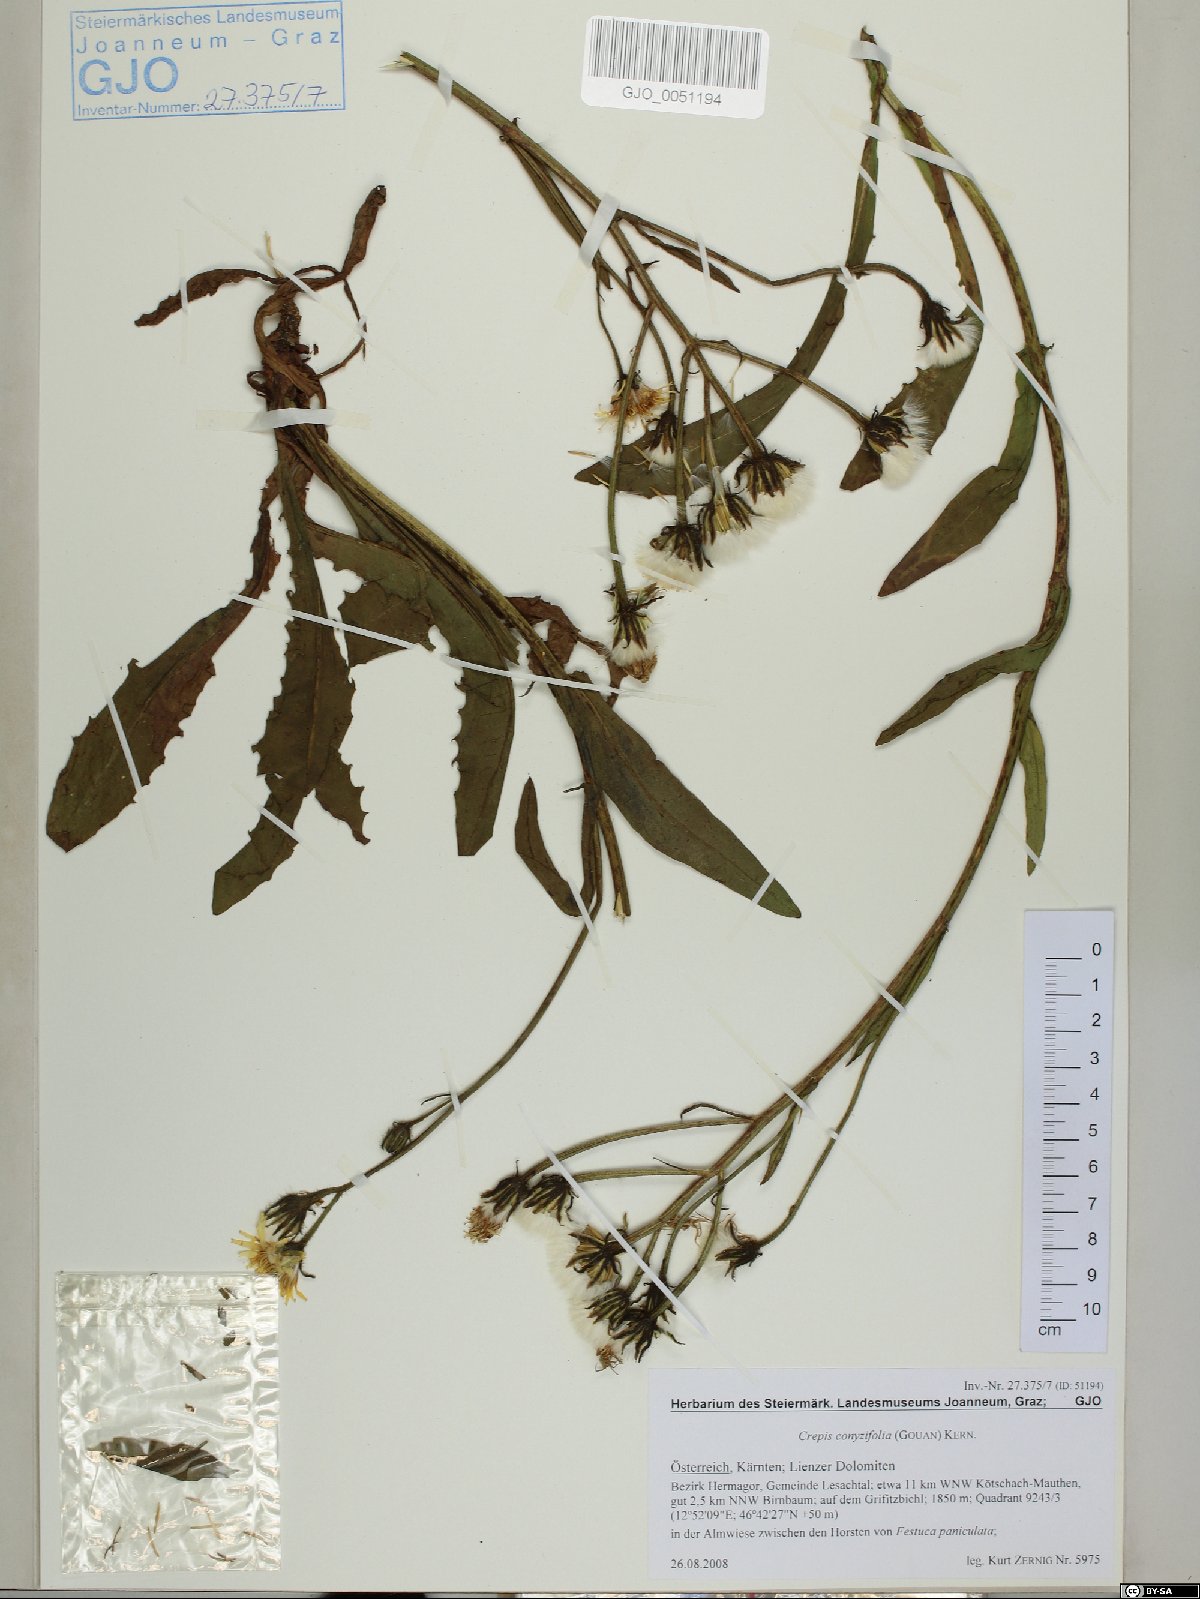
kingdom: Plantae
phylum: Tracheophyta
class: Magnoliopsida
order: Asterales
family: Asteraceae
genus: Crepis
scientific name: Crepis blattarioides
